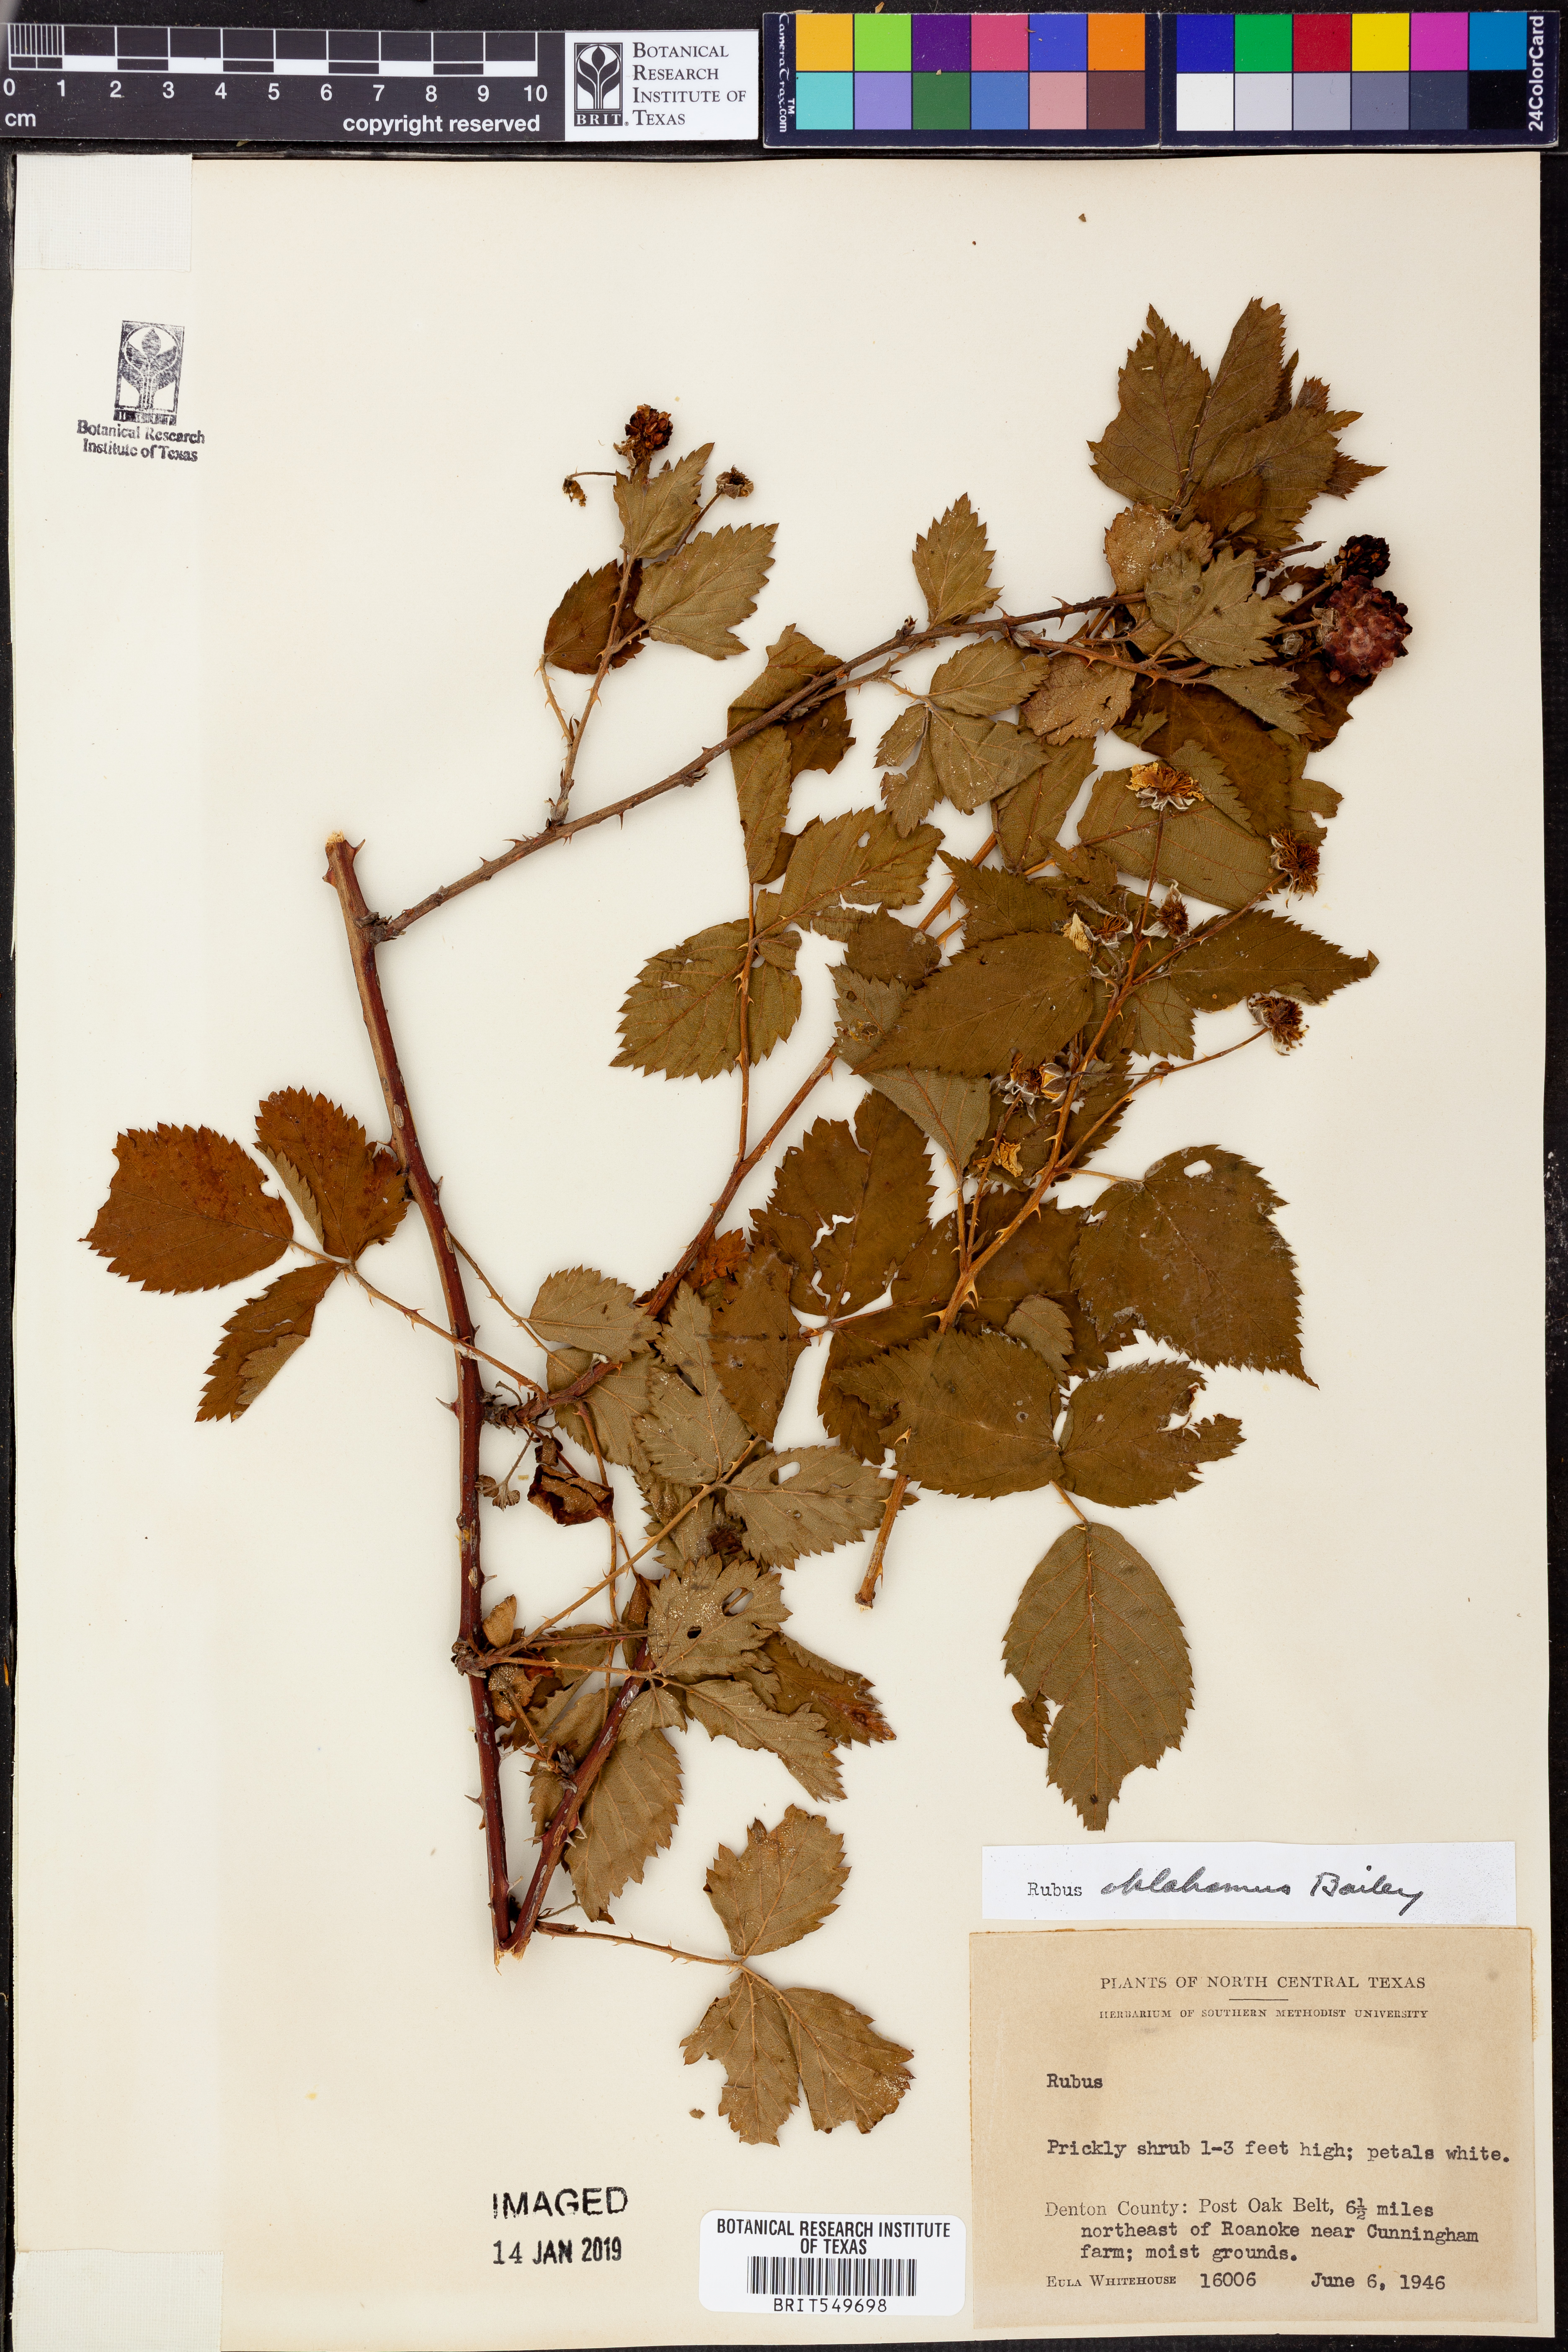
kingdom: Plantae
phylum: Tracheophyta
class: Magnoliopsida
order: Rosales
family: Rosaceae
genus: Rubus
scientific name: Rubus oklahomus
